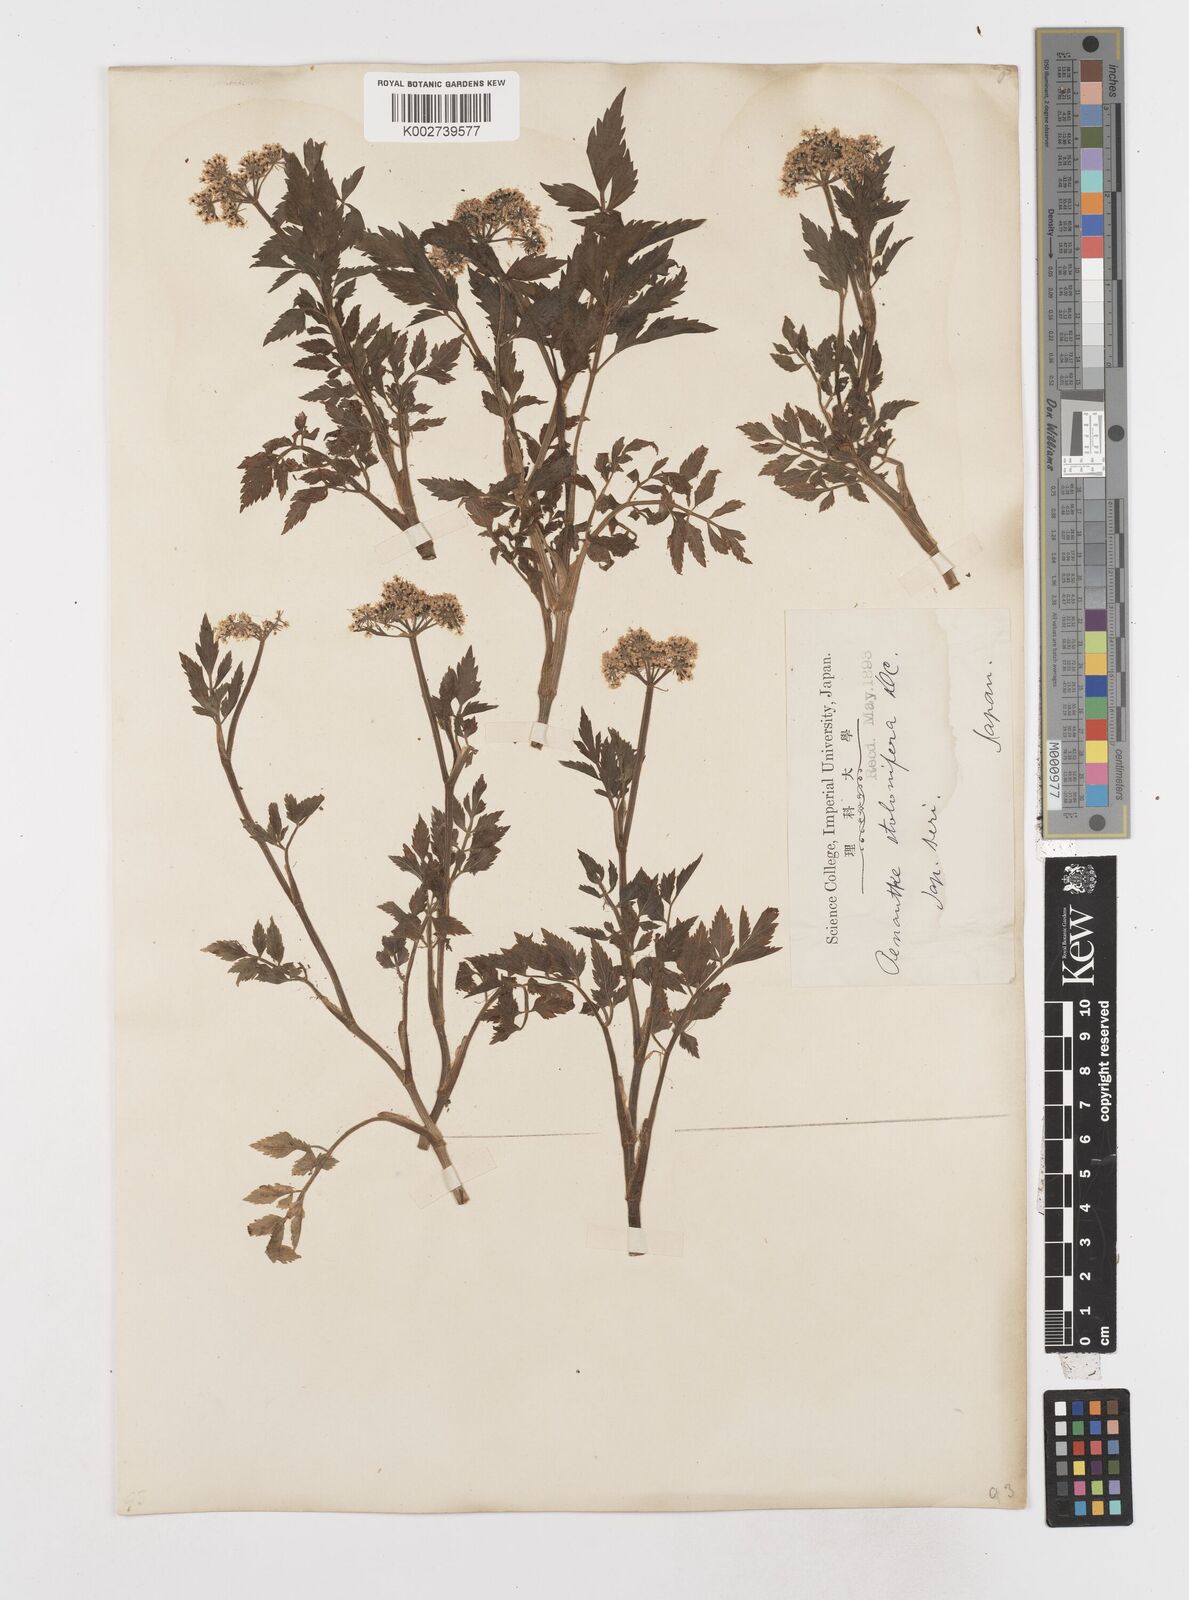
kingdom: Plantae
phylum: Tracheophyta
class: Magnoliopsida
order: Apiales
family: Apiaceae
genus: Oenanthe
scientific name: Oenanthe javanica
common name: Java water-dropwort
